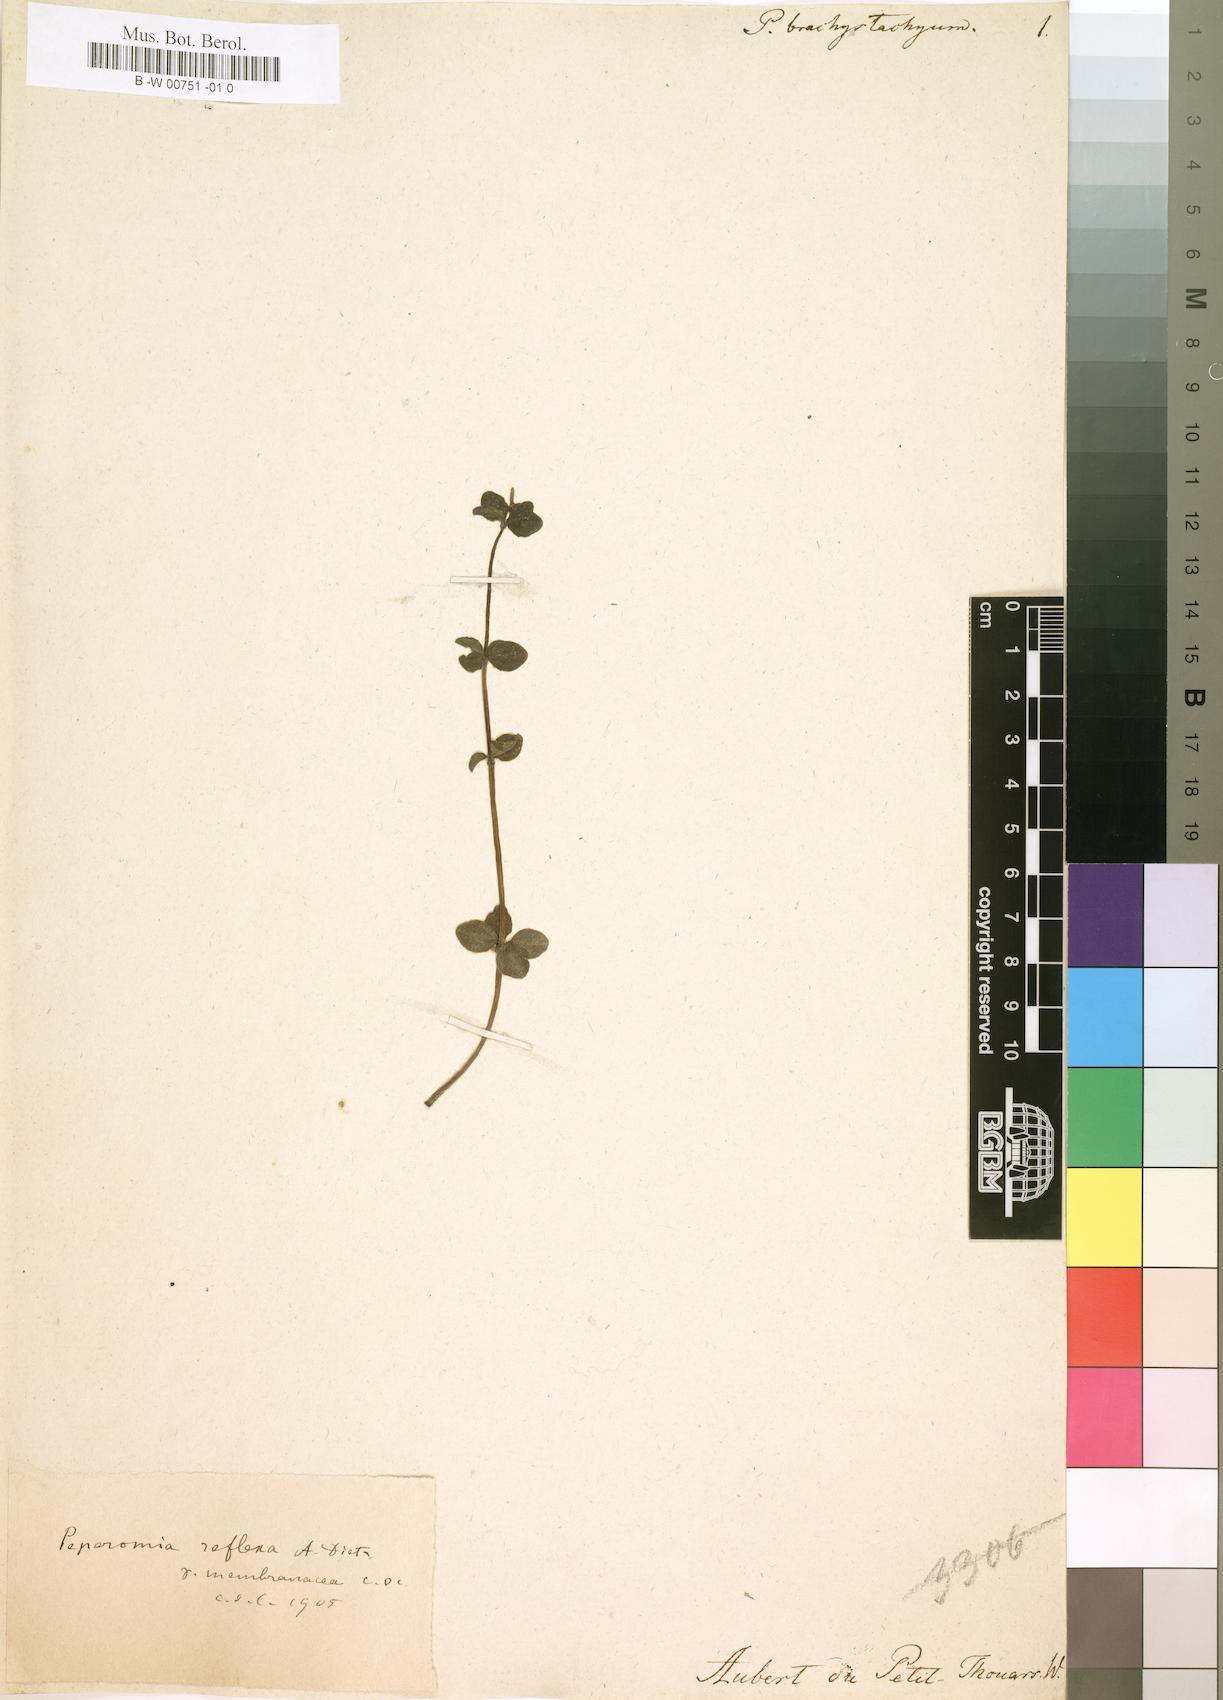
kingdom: Plantae
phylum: Tracheophyta
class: Magnoliopsida
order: Piperales
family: Piperaceae
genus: Peperomia
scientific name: Peperomia reflexa
